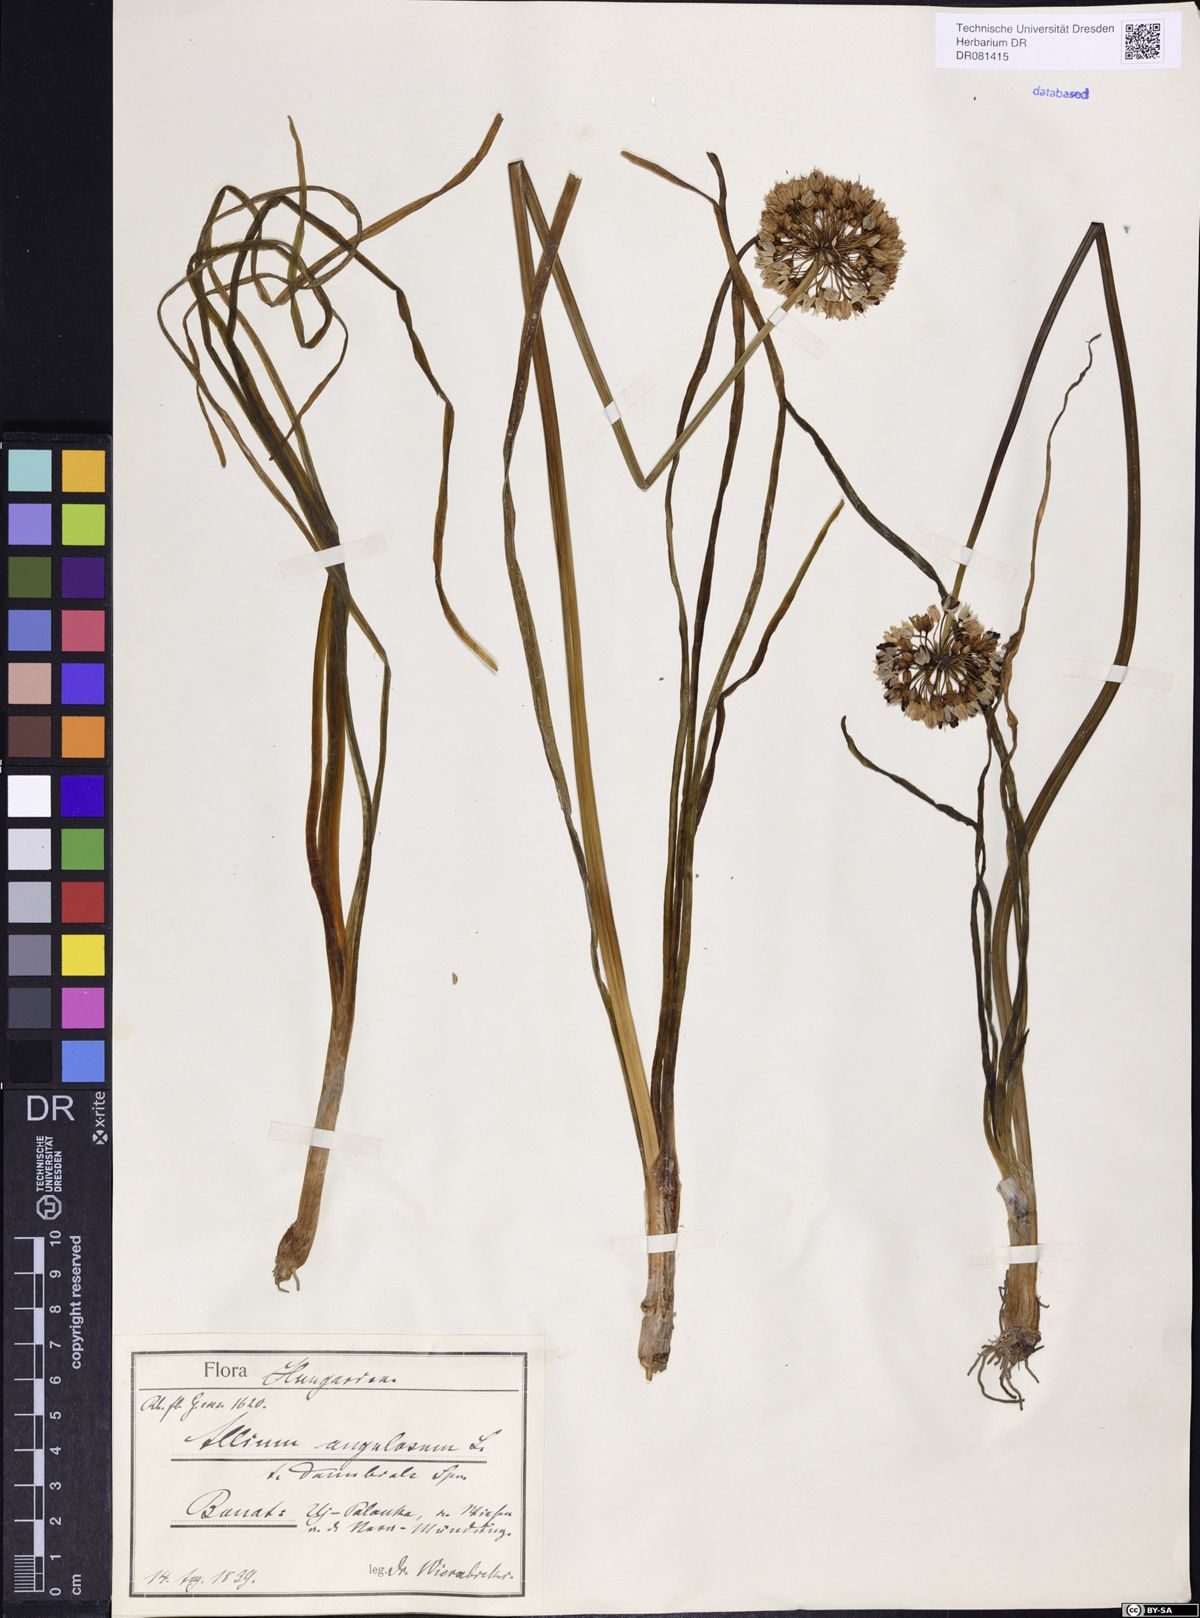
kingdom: Plantae
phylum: Tracheophyta
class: Liliopsida
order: Asparagales
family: Amaryllidaceae
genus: Allium
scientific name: Allium angulosum
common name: Mouse garlic
